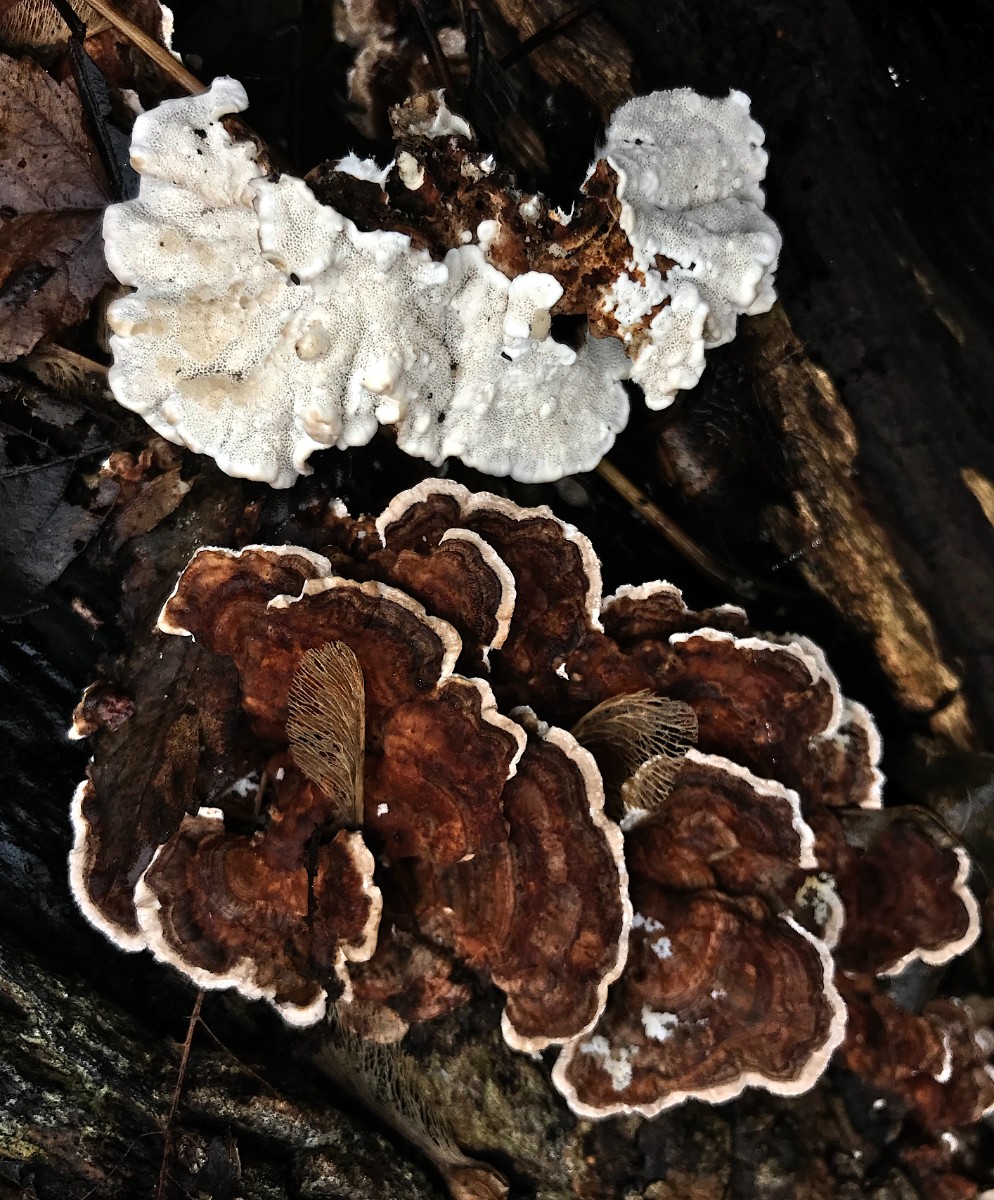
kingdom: Fungi
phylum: Basidiomycota
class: Agaricomycetes
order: Polyporales
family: Polyporaceae
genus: Trametes
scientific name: Trametes versicolor
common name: broget læderporesvamp
